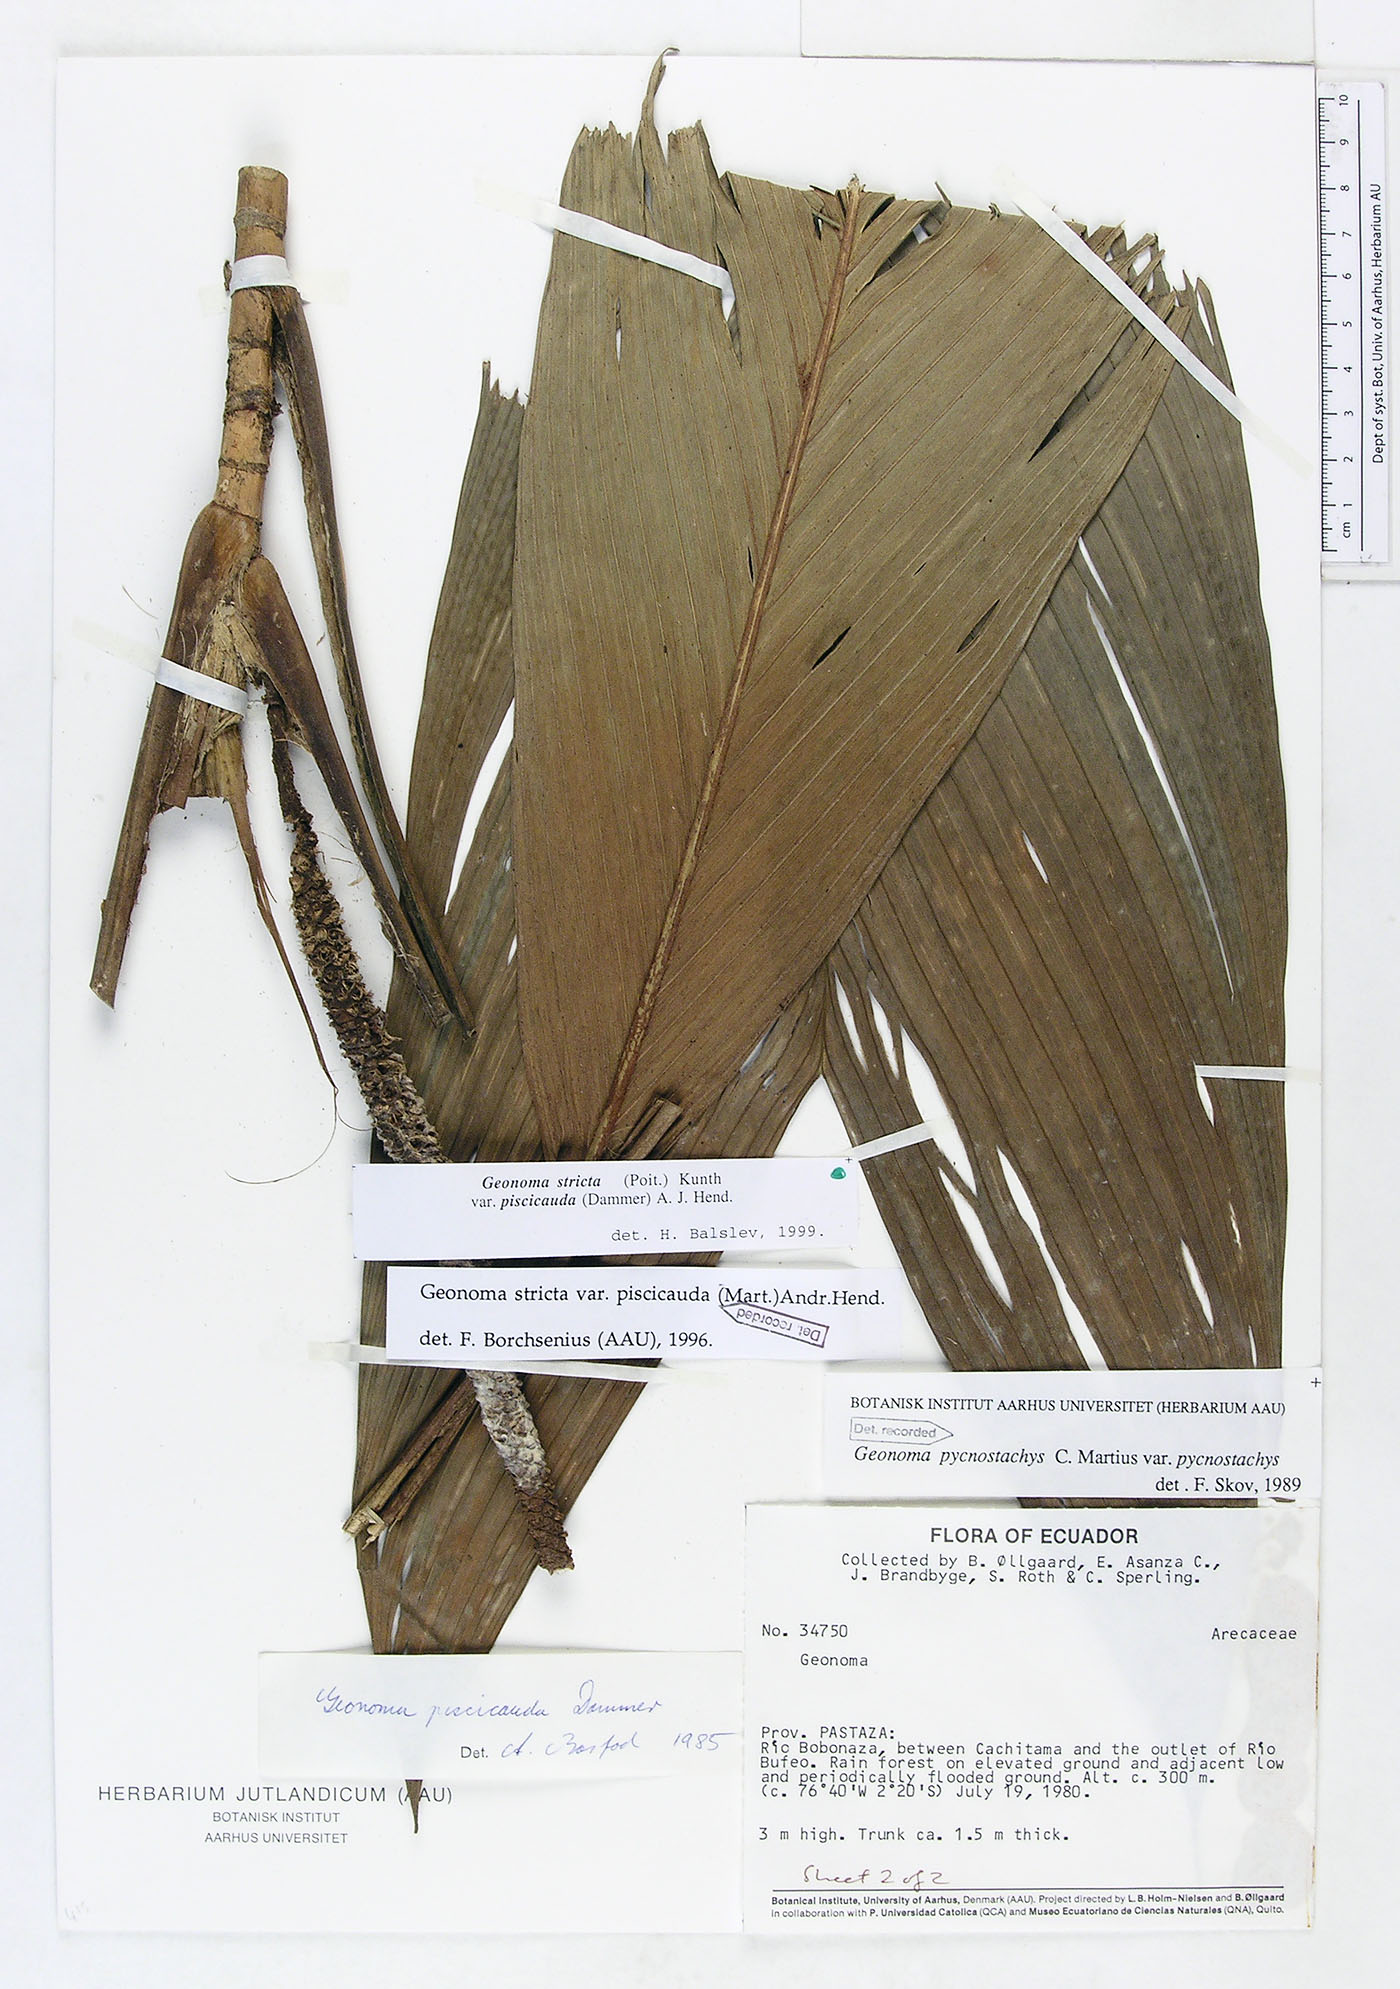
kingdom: Plantae
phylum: Tracheophyta
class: Liliopsida
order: Arecales
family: Arecaceae
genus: Geonoma
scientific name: Geonoma stricta
